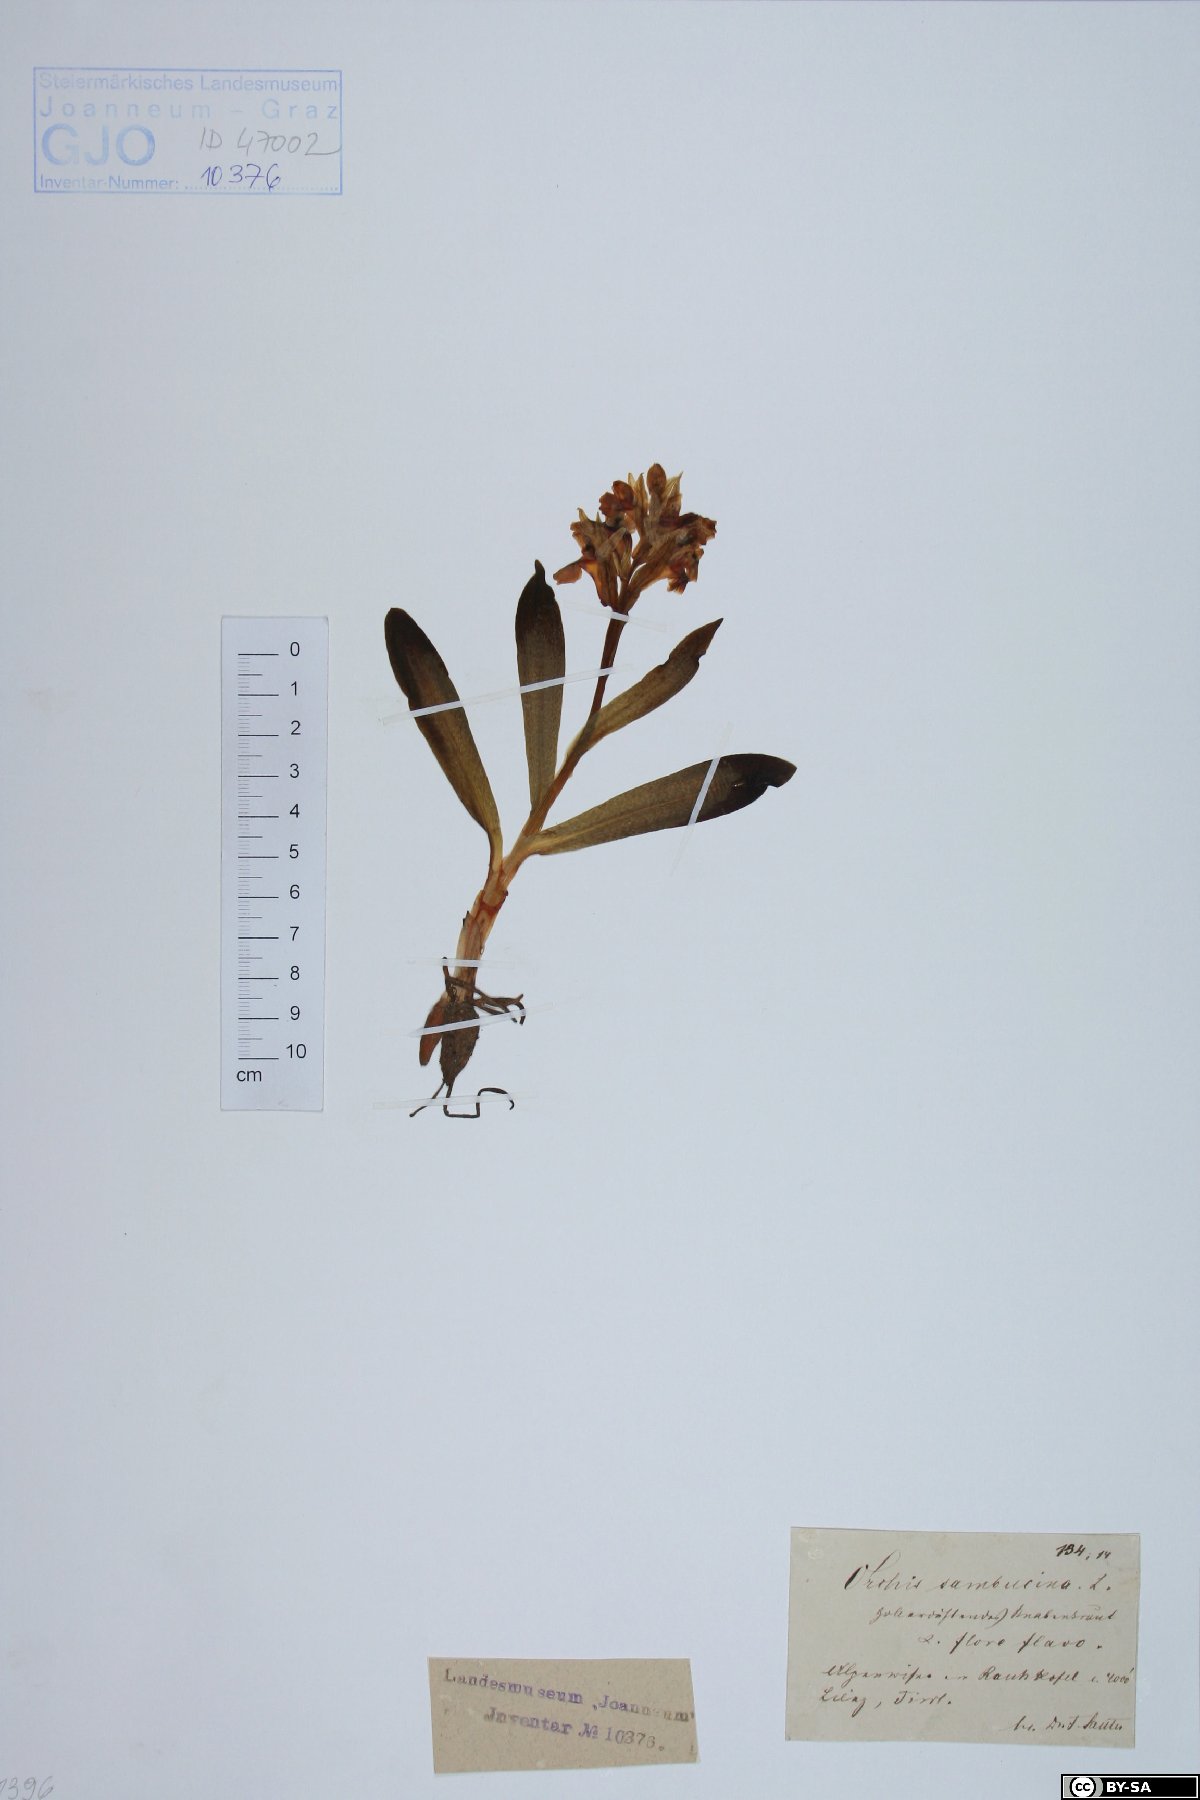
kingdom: Plantae
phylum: Tracheophyta
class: Liliopsida
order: Asparagales
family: Orchidaceae
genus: Dactylorhiza
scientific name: Dactylorhiza sambucina
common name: Elder-flowered orchid
